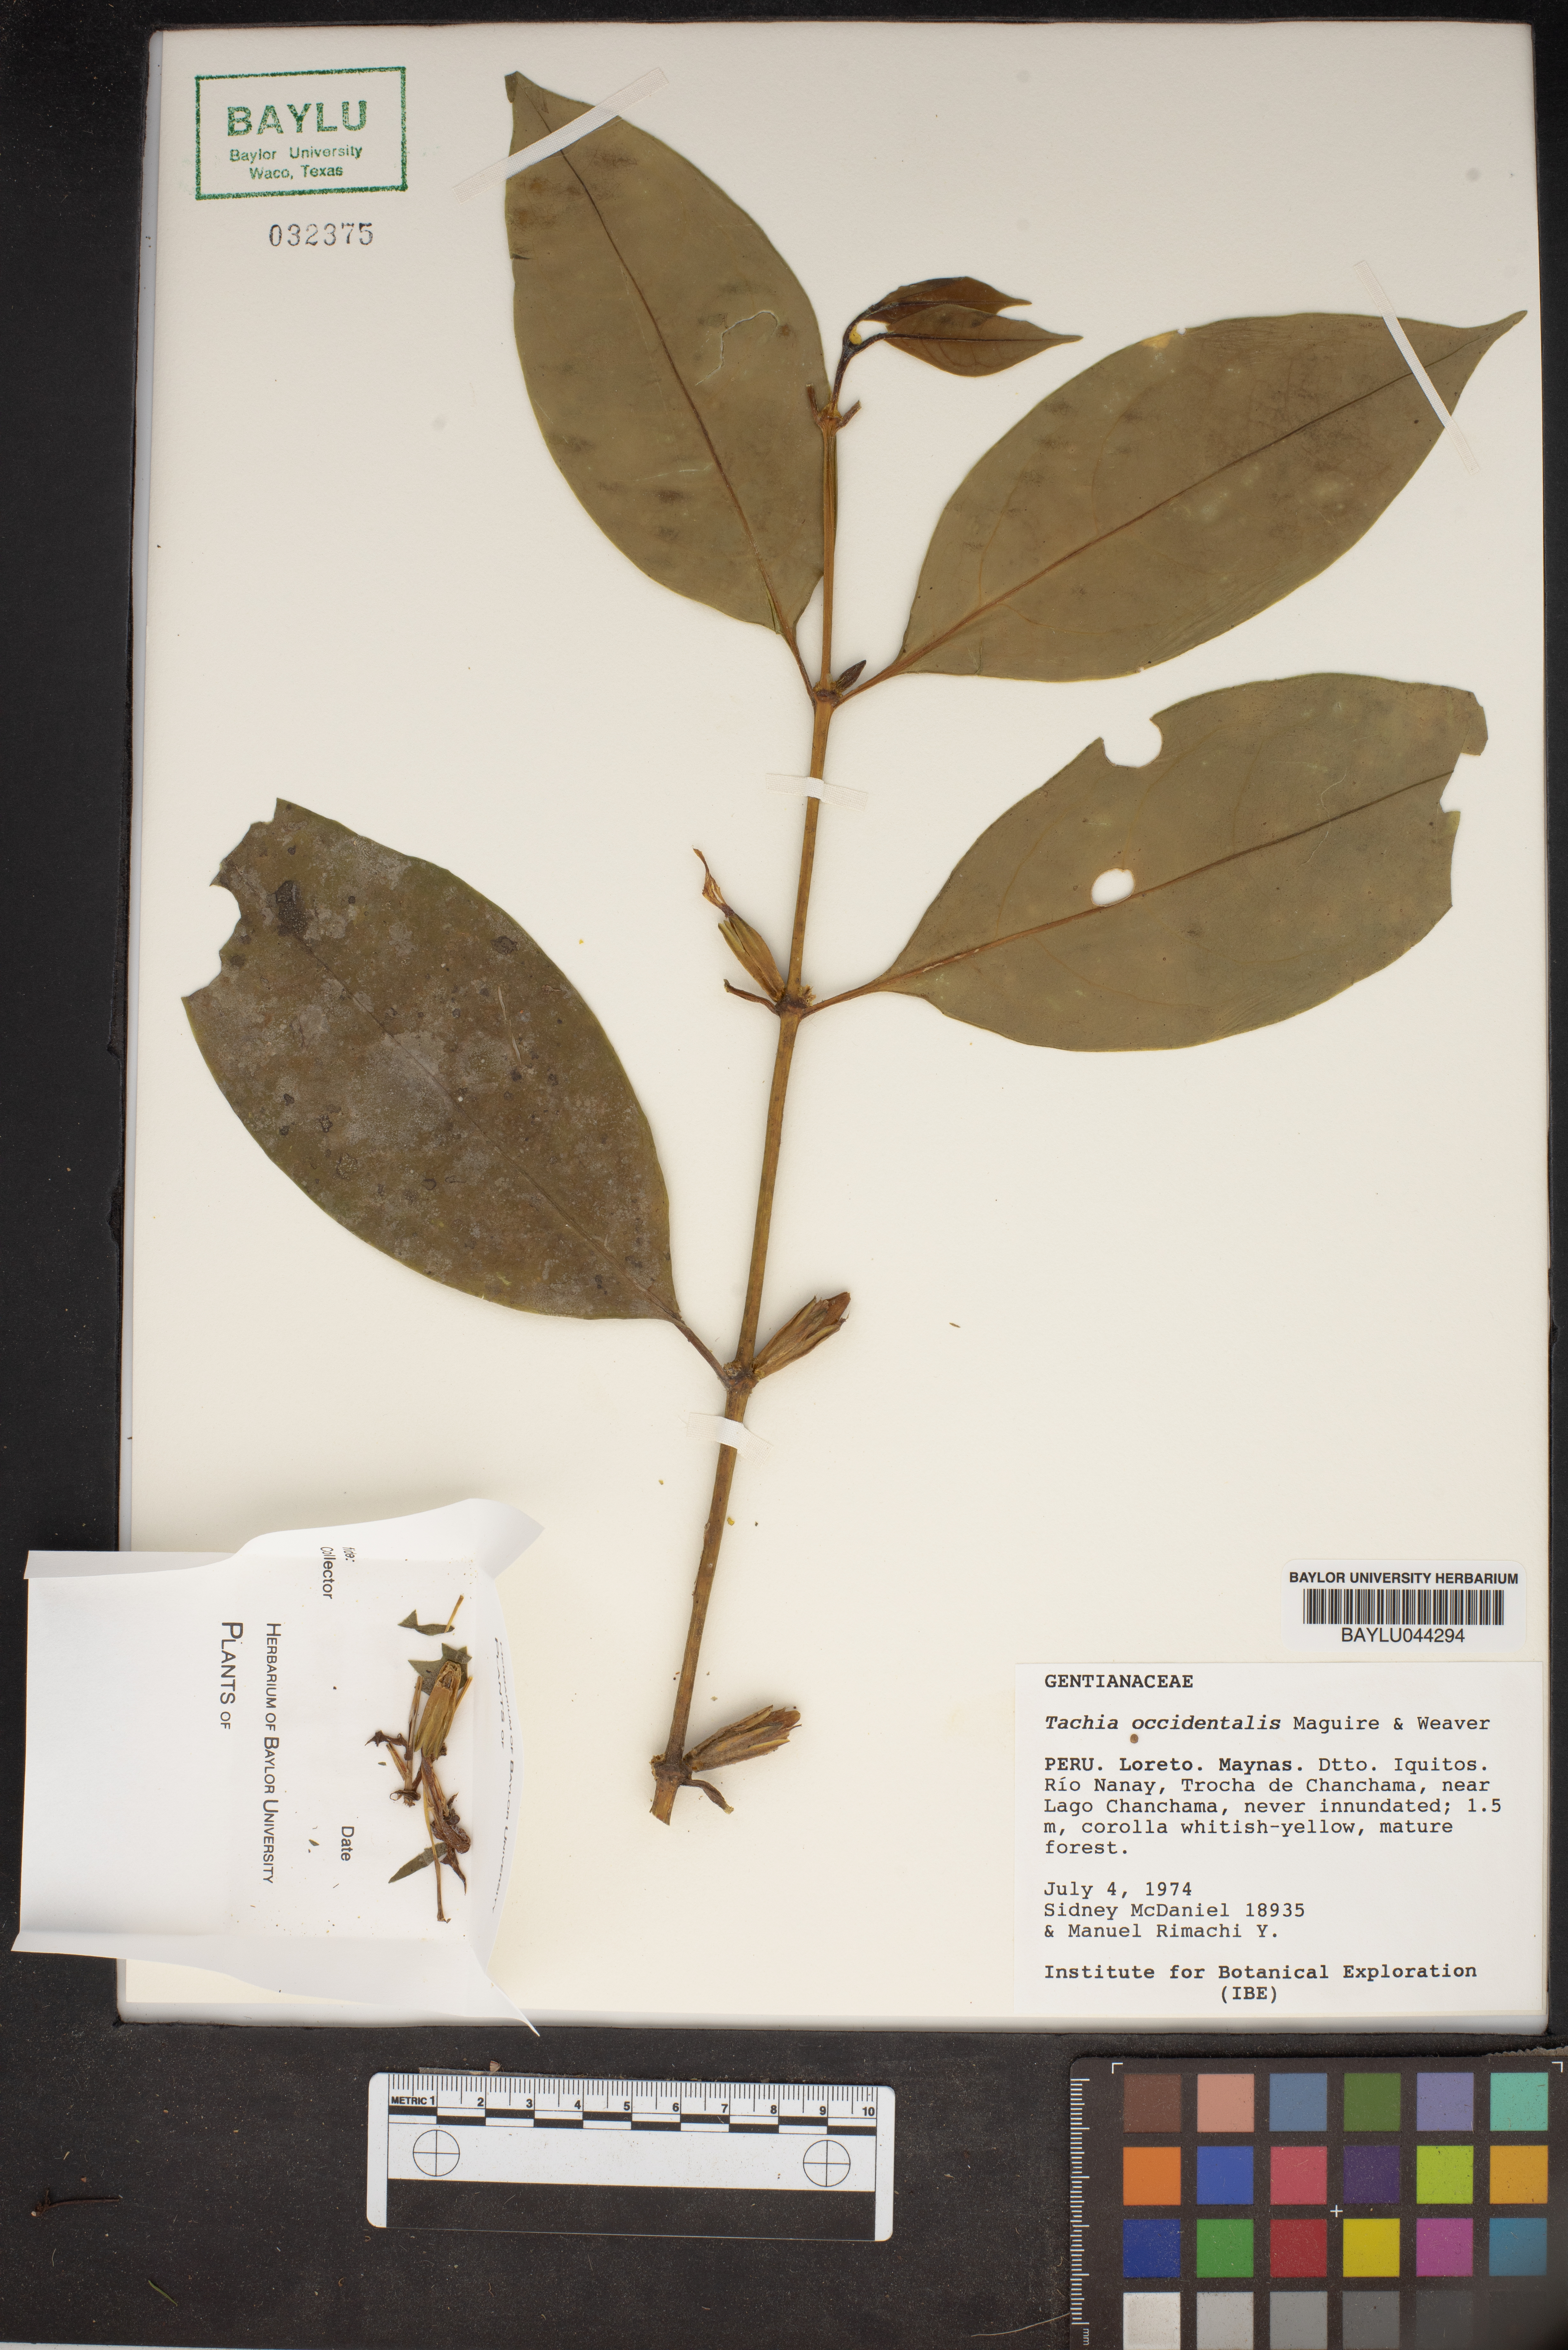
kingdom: Plantae
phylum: Tracheophyta
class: Magnoliopsida
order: Gentianales
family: Gentianaceae
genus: Tachia
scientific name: Tachia occidentalis
